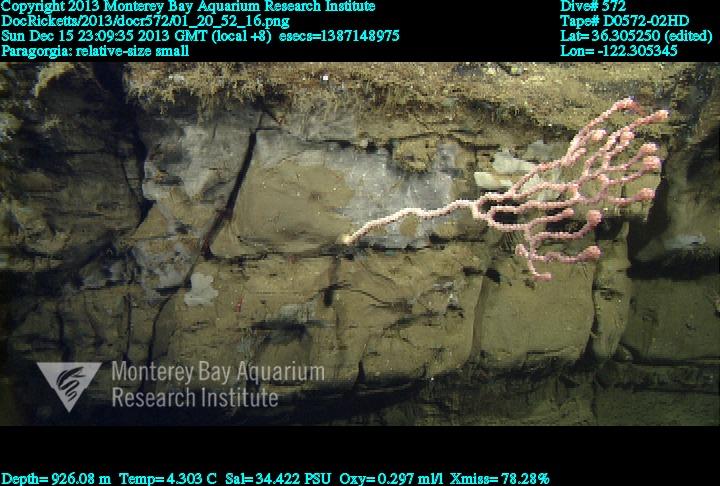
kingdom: Animalia
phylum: Cnidaria
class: Anthozoa
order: Scleralcyonacea
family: Coralliidae
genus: Sibogagorgia
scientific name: Sibogagorgia cauliflora
